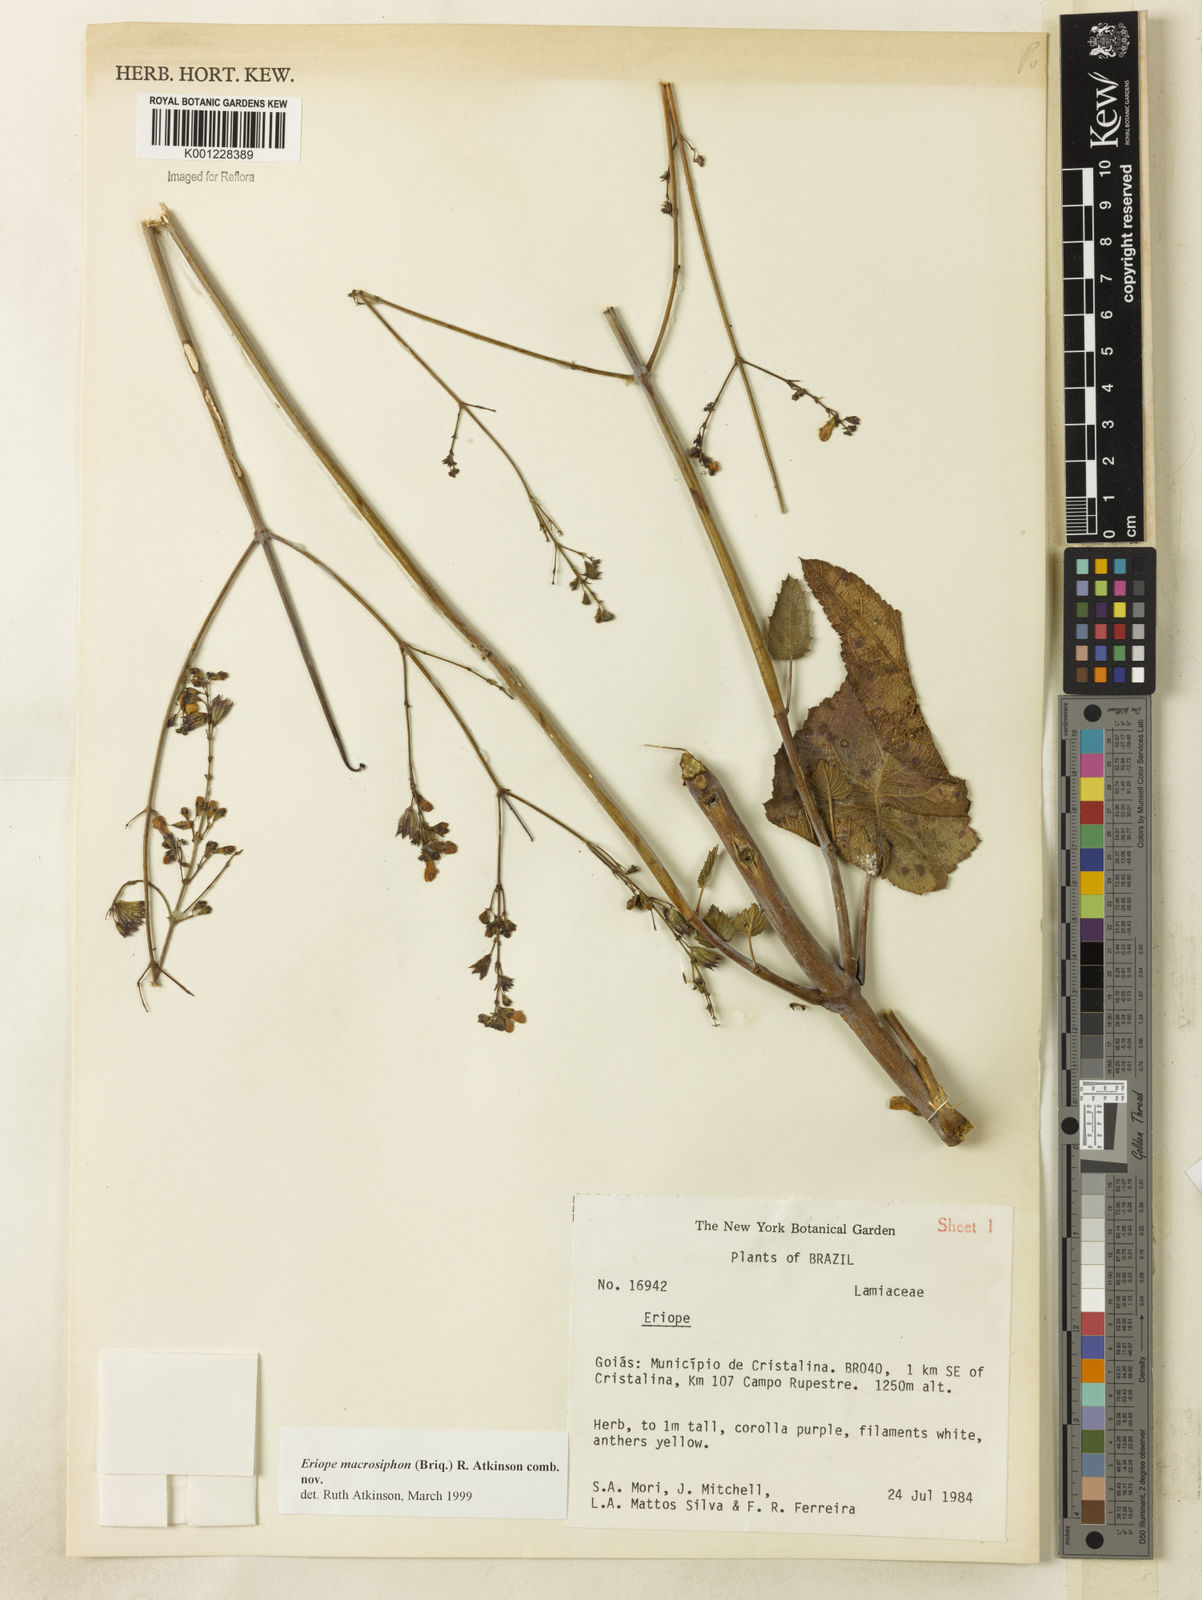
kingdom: Plantae
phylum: Tracheophyta
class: Magnoliopsida
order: Lamiales
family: Lamiaceae
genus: Hypenia
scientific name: Hypenia macrosiphon
